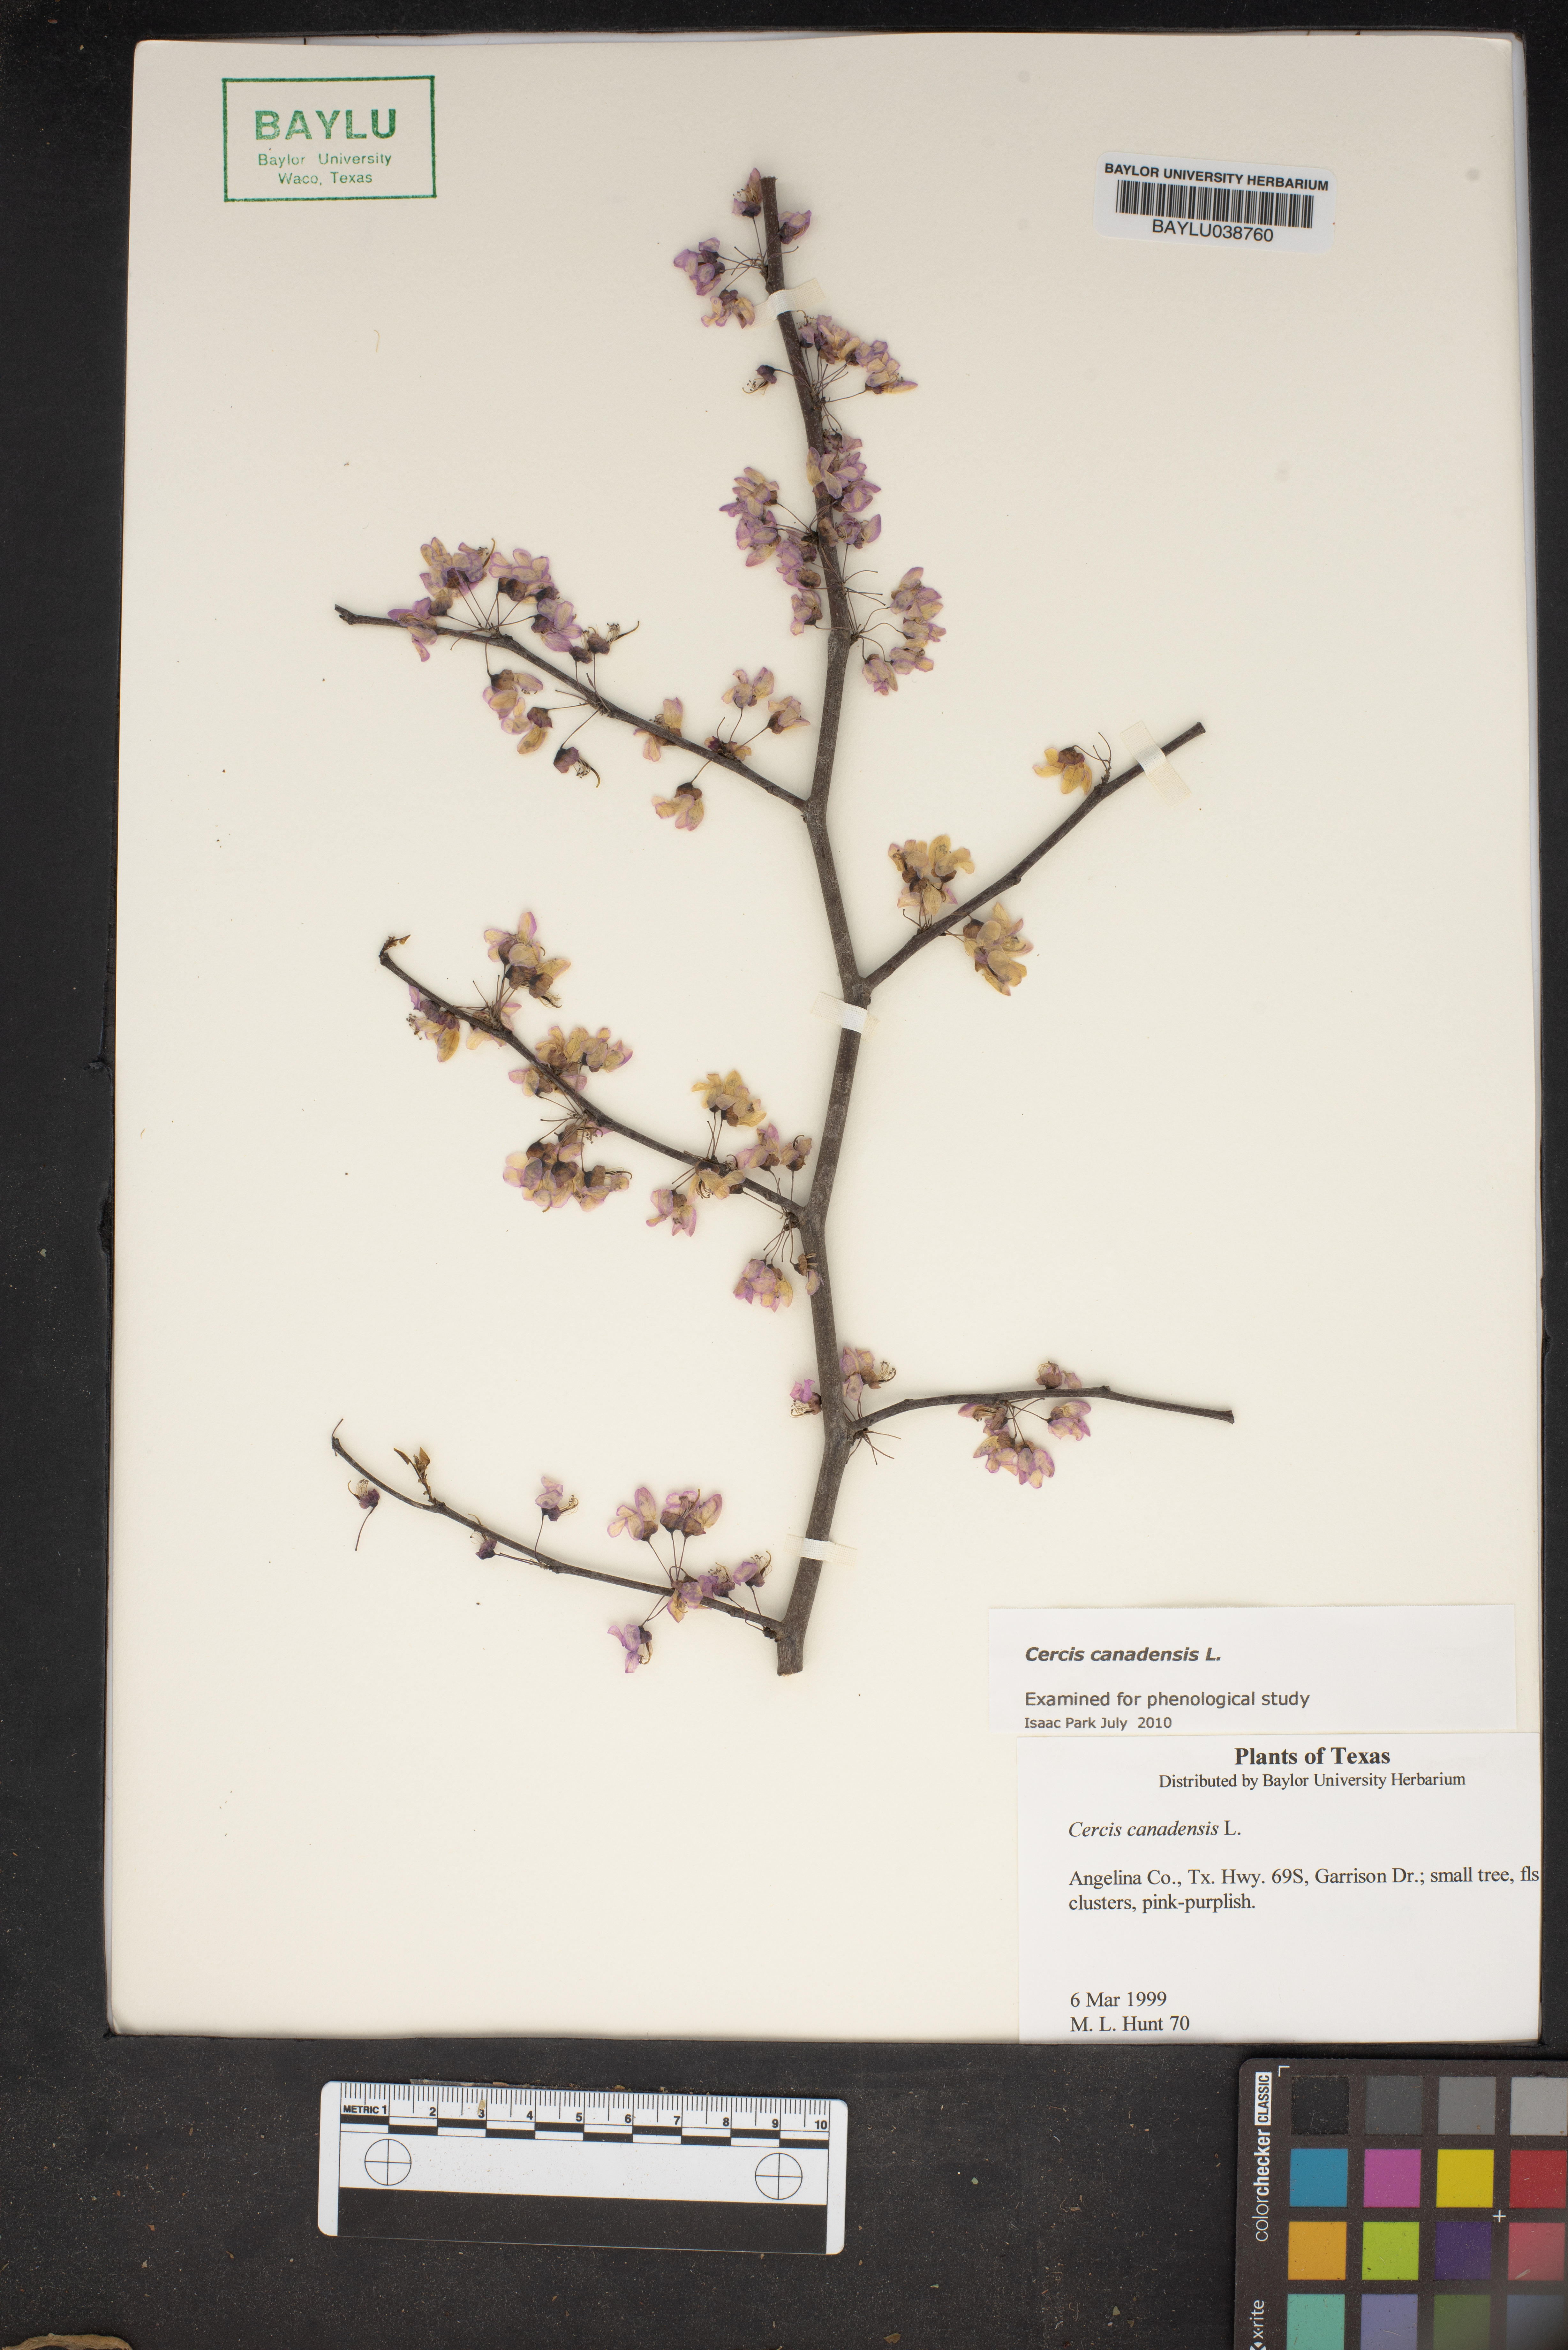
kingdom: Plantae
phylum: Tracheophyta
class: Magnoliopsida
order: Fabales
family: Fabaceae
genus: Cercis
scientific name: Cercis canadensis
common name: Eastern redbud
